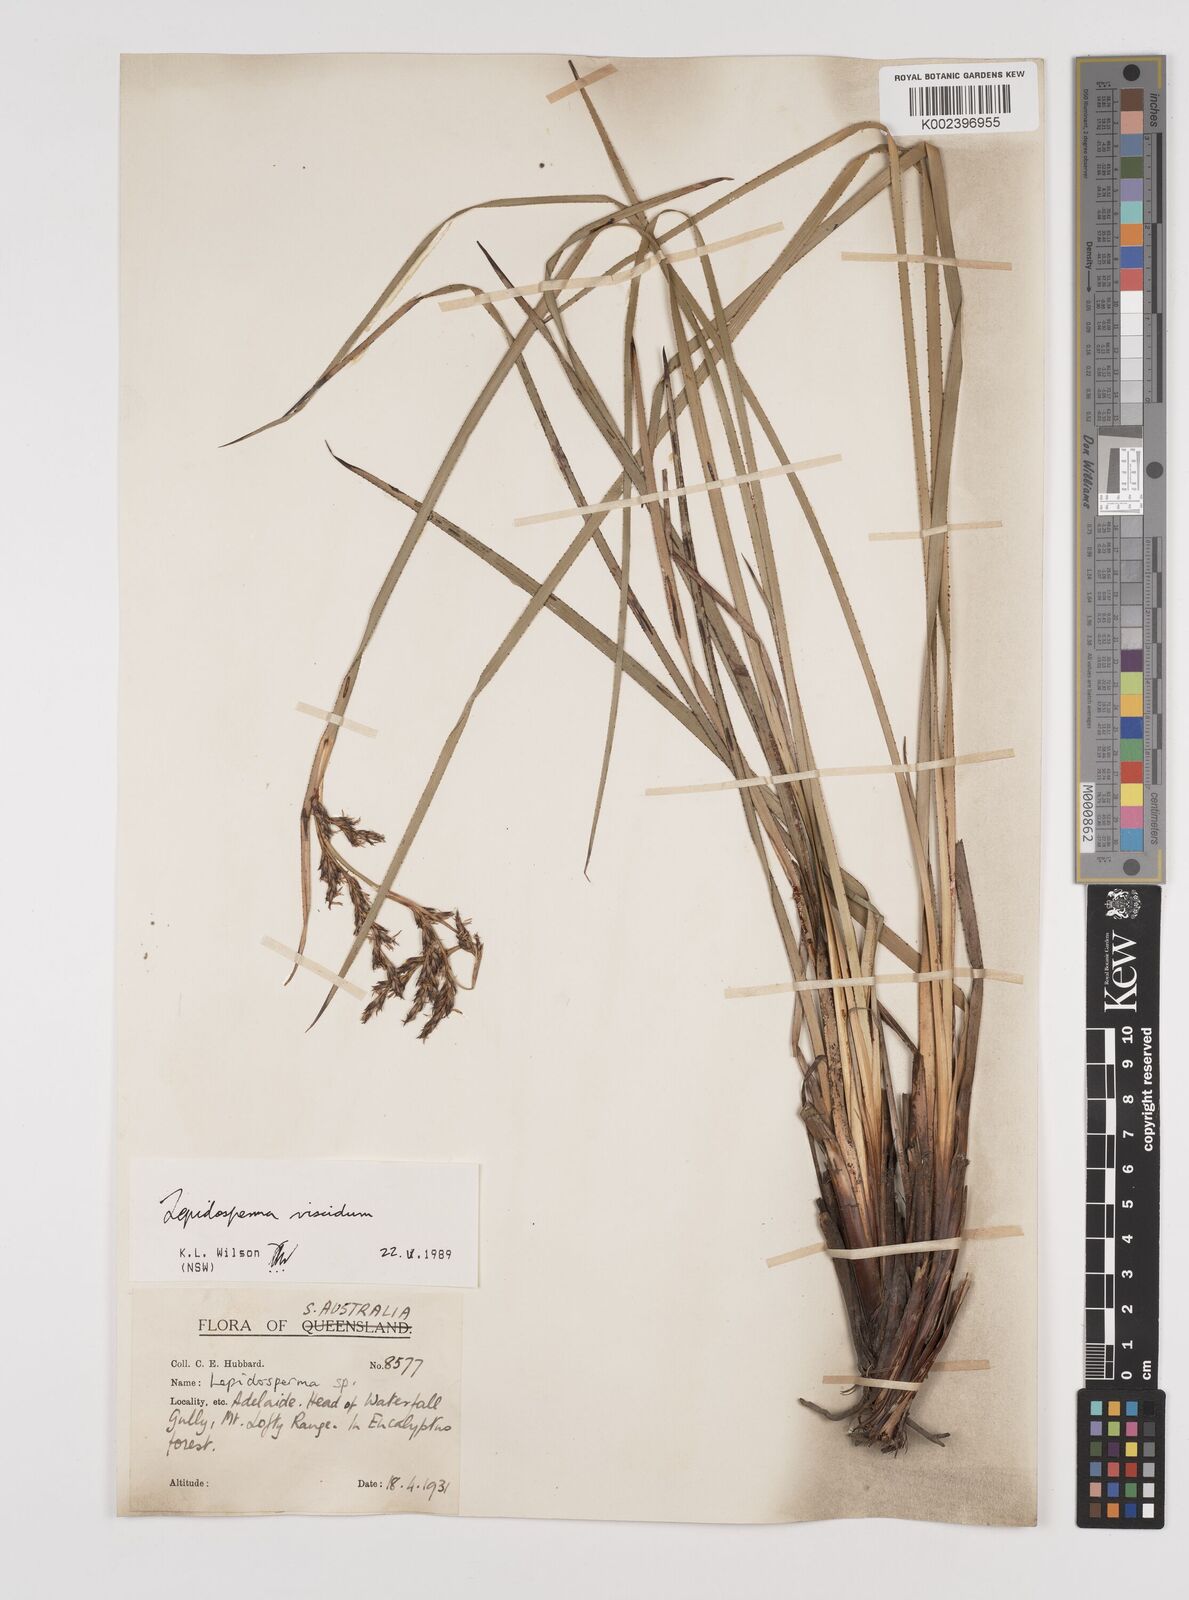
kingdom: Plantae
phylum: Tracheophyta
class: Liliopsida
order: Poales
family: Cyperaceae
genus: Lepidosperma
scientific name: Lepidosperma viscidum
